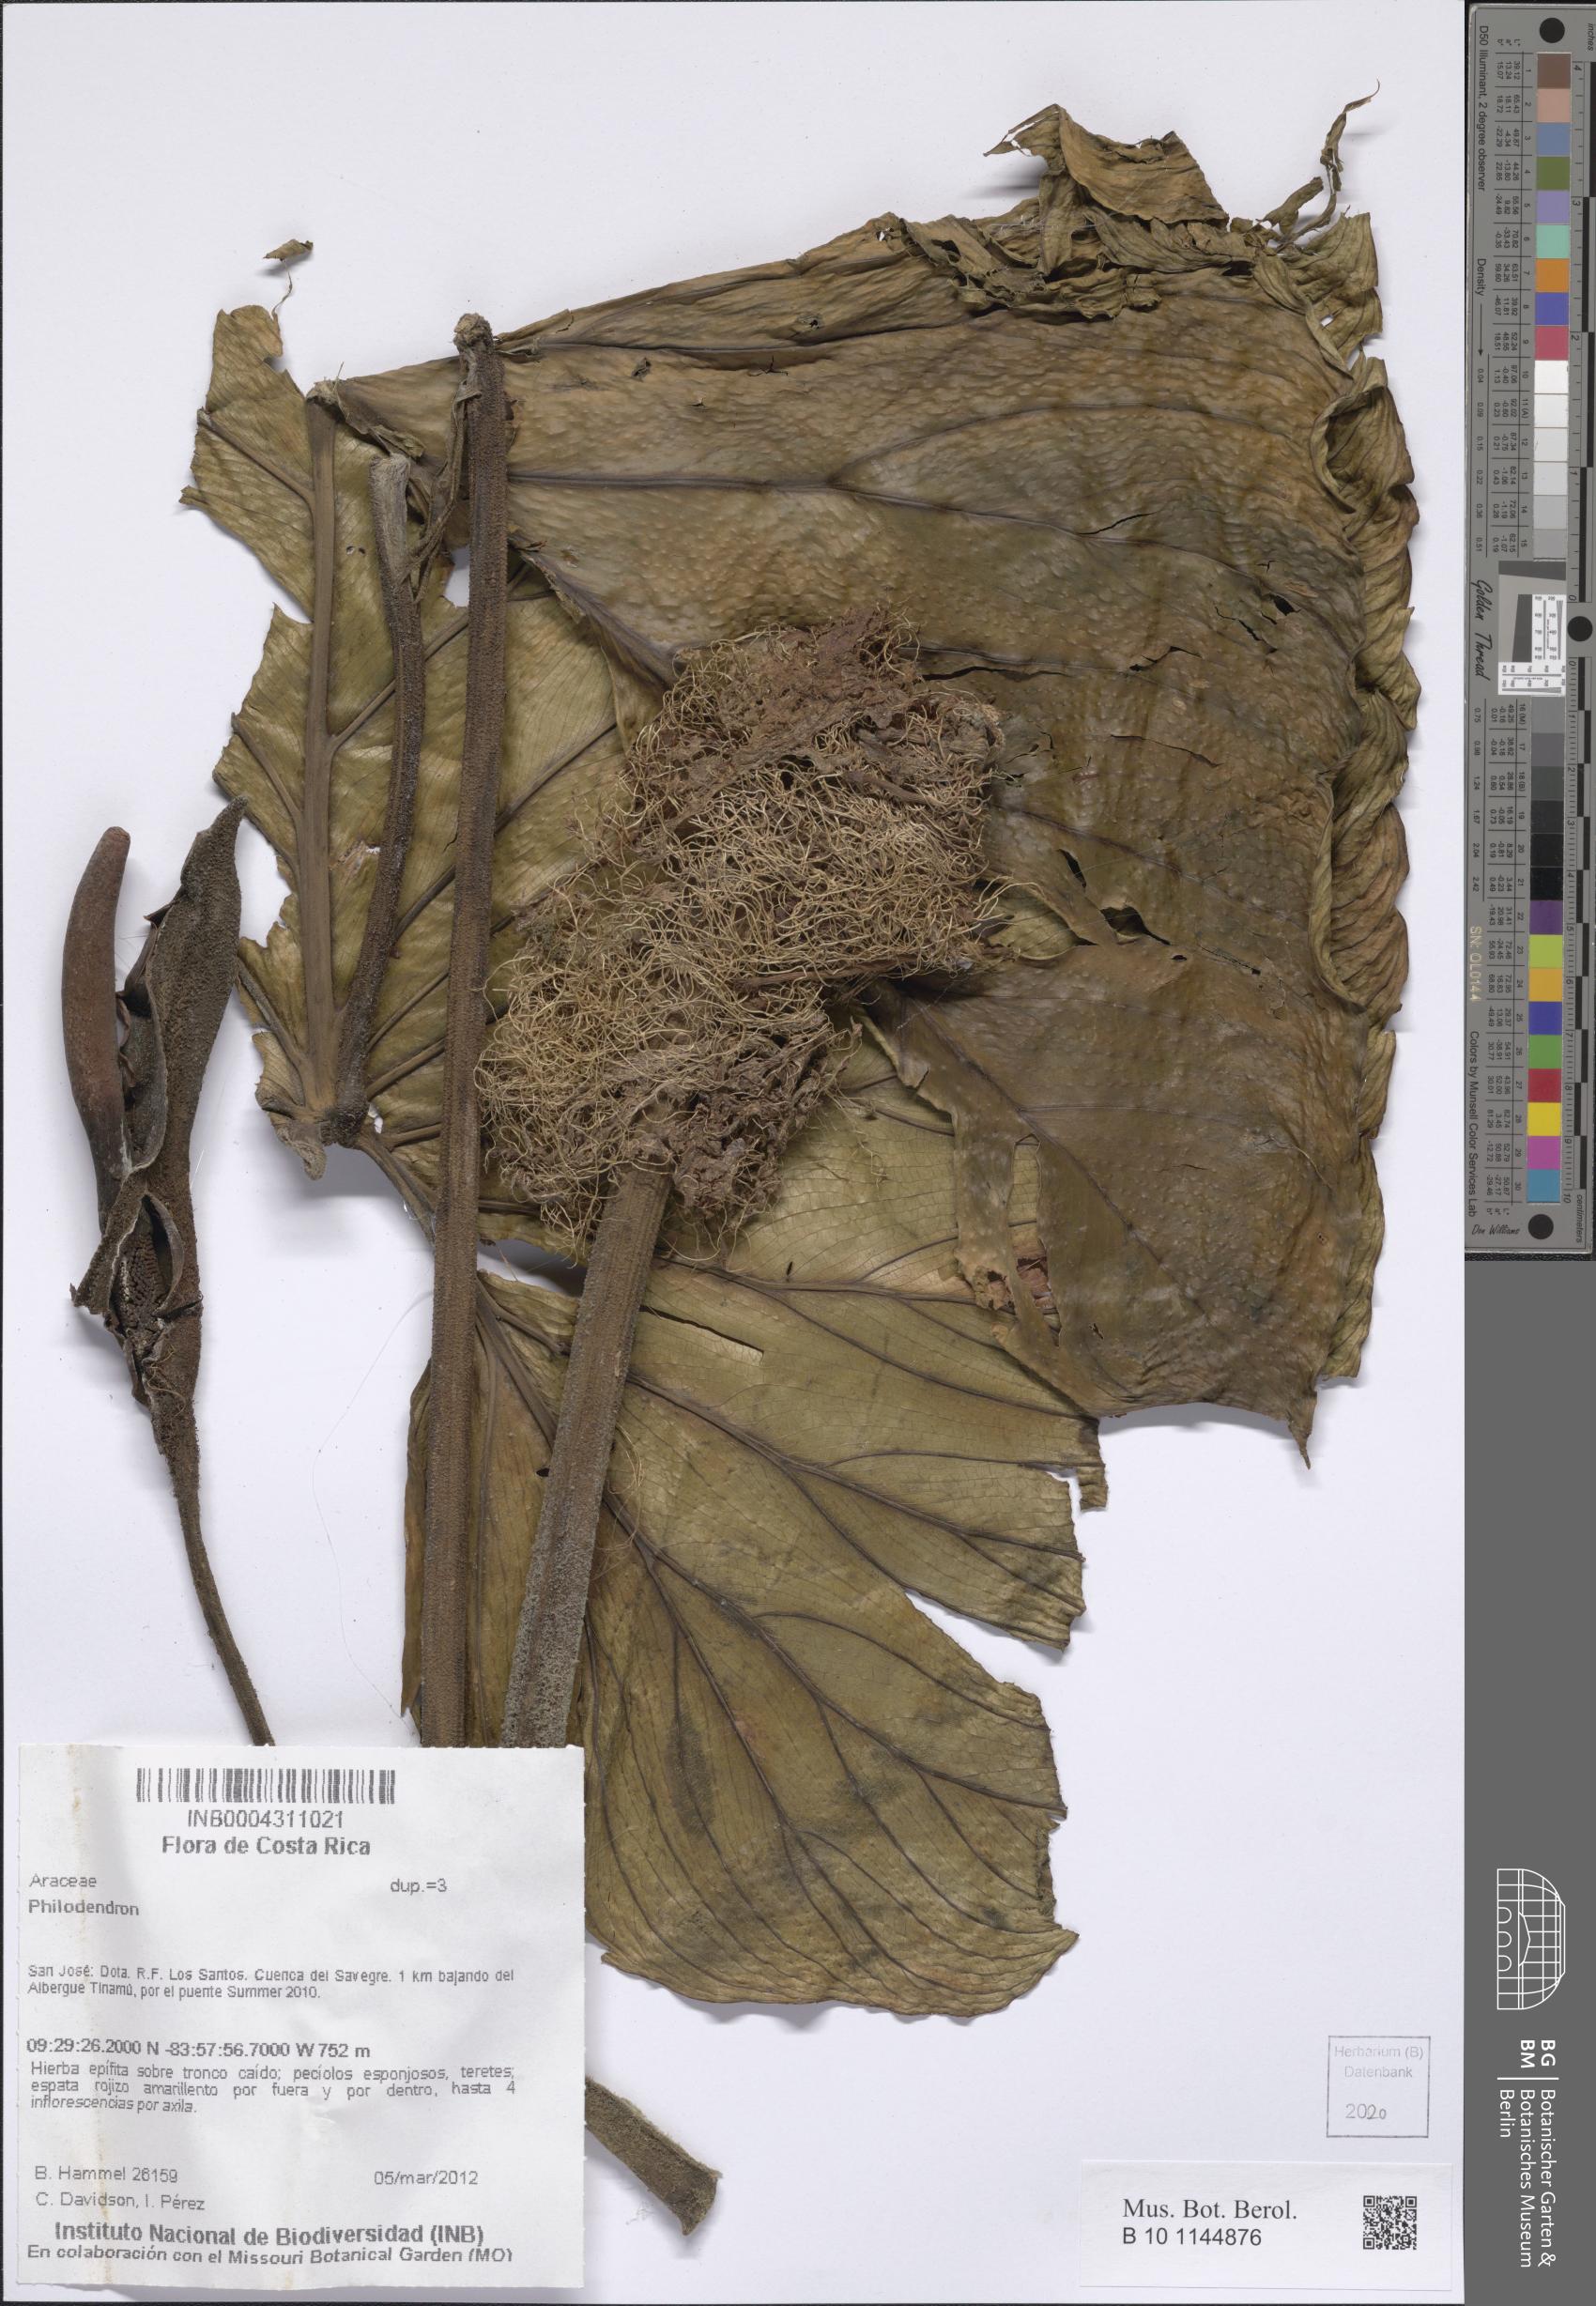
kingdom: Plantae
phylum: Tracheophyta
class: Liliopsida
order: Alismatales
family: Araceae
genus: Philodendron
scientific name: Philodendron
